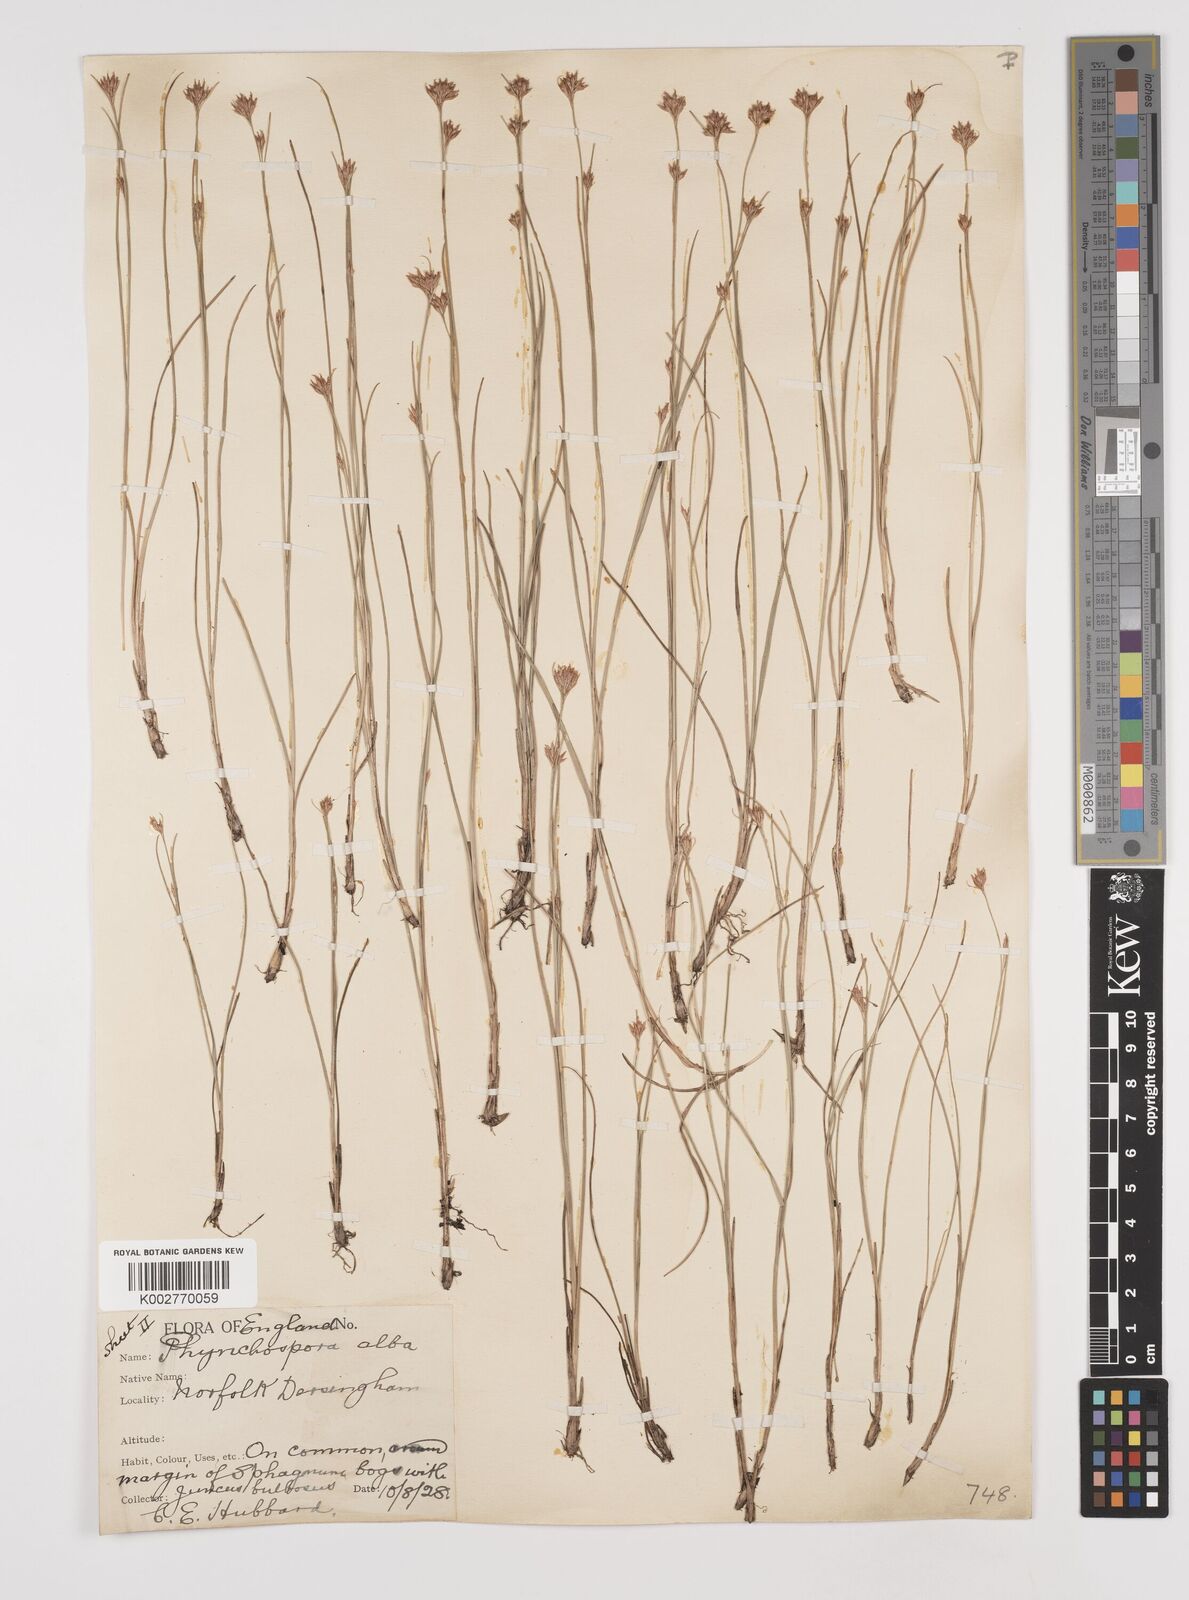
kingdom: Plantae
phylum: Tracheophyta
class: Liliopsida
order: Poales
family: Cyperaceae
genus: Rhynchospora
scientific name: Rhynchospora alba
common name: White beak-sedge
